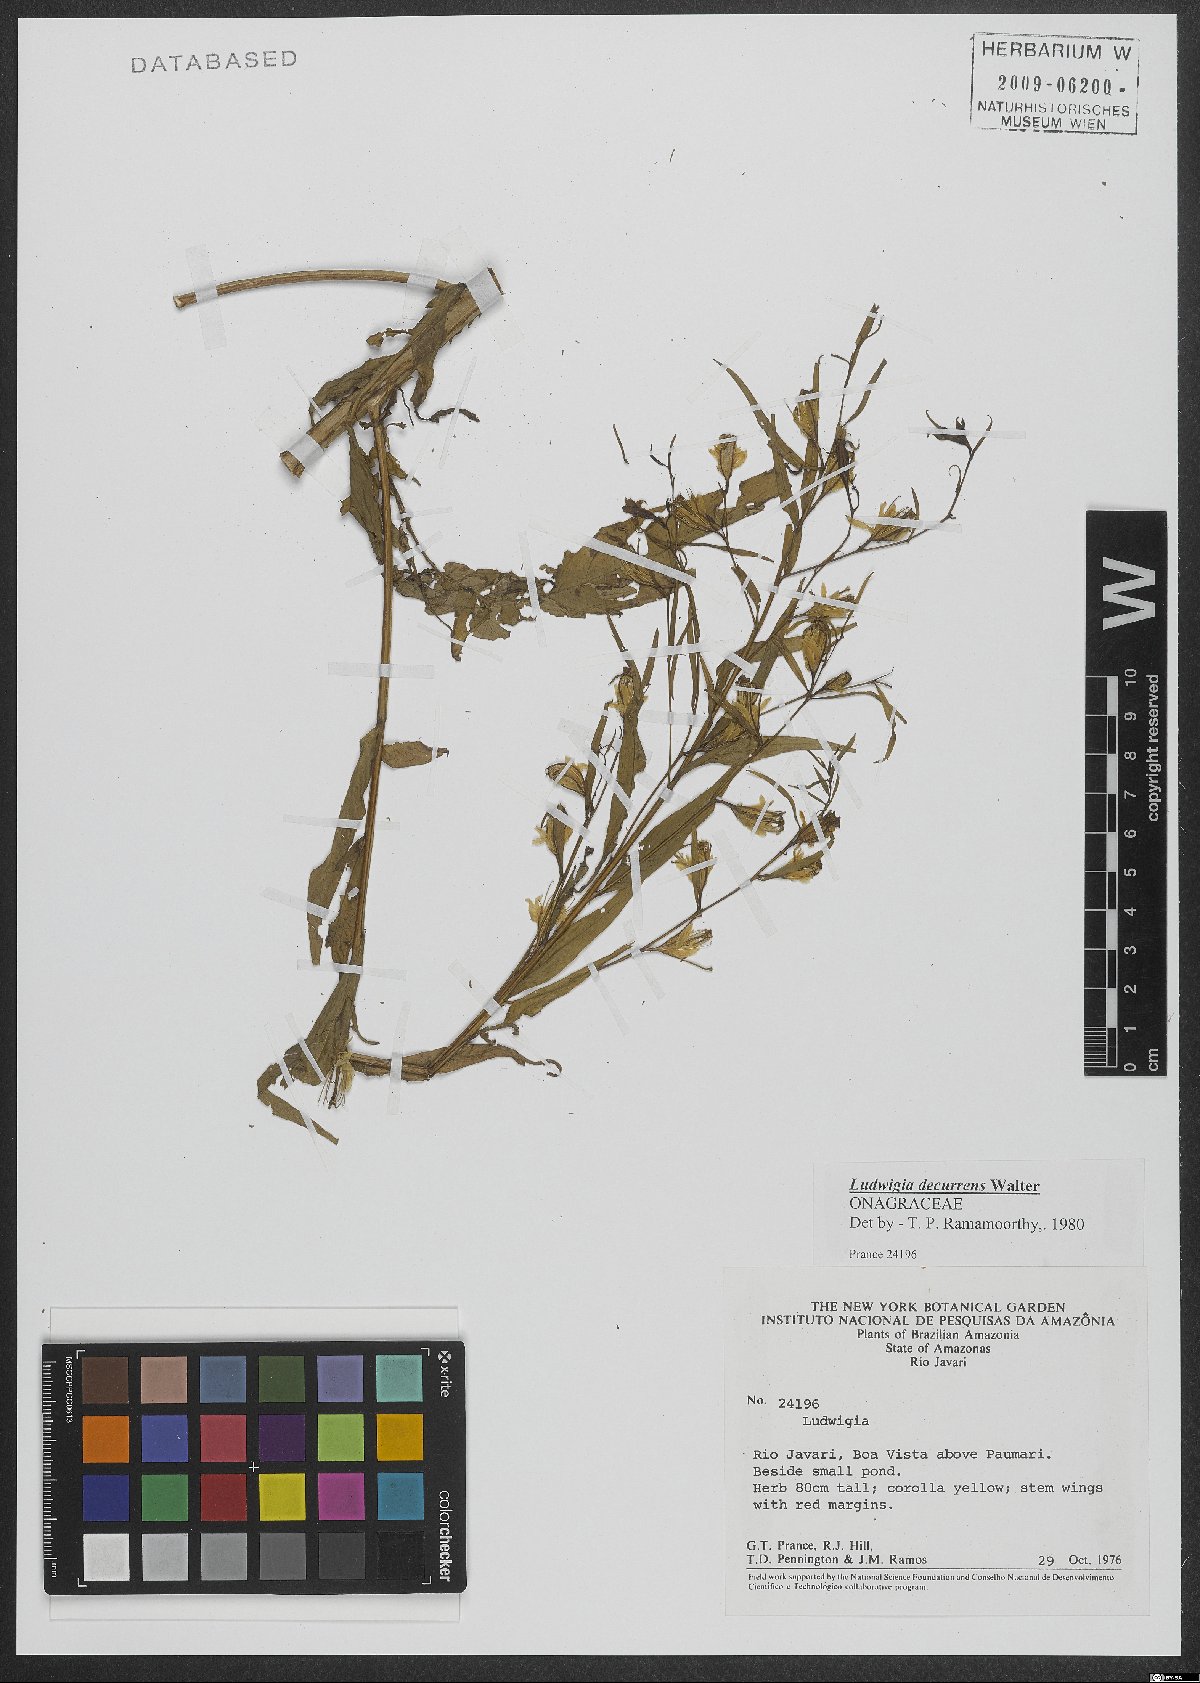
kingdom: Plantae
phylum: Tracheophyta
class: Magnoliopsida
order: Myrtales
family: Onagraceae
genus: Ludwigia
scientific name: Ludwigia decurrens
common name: Winged water-primrose
